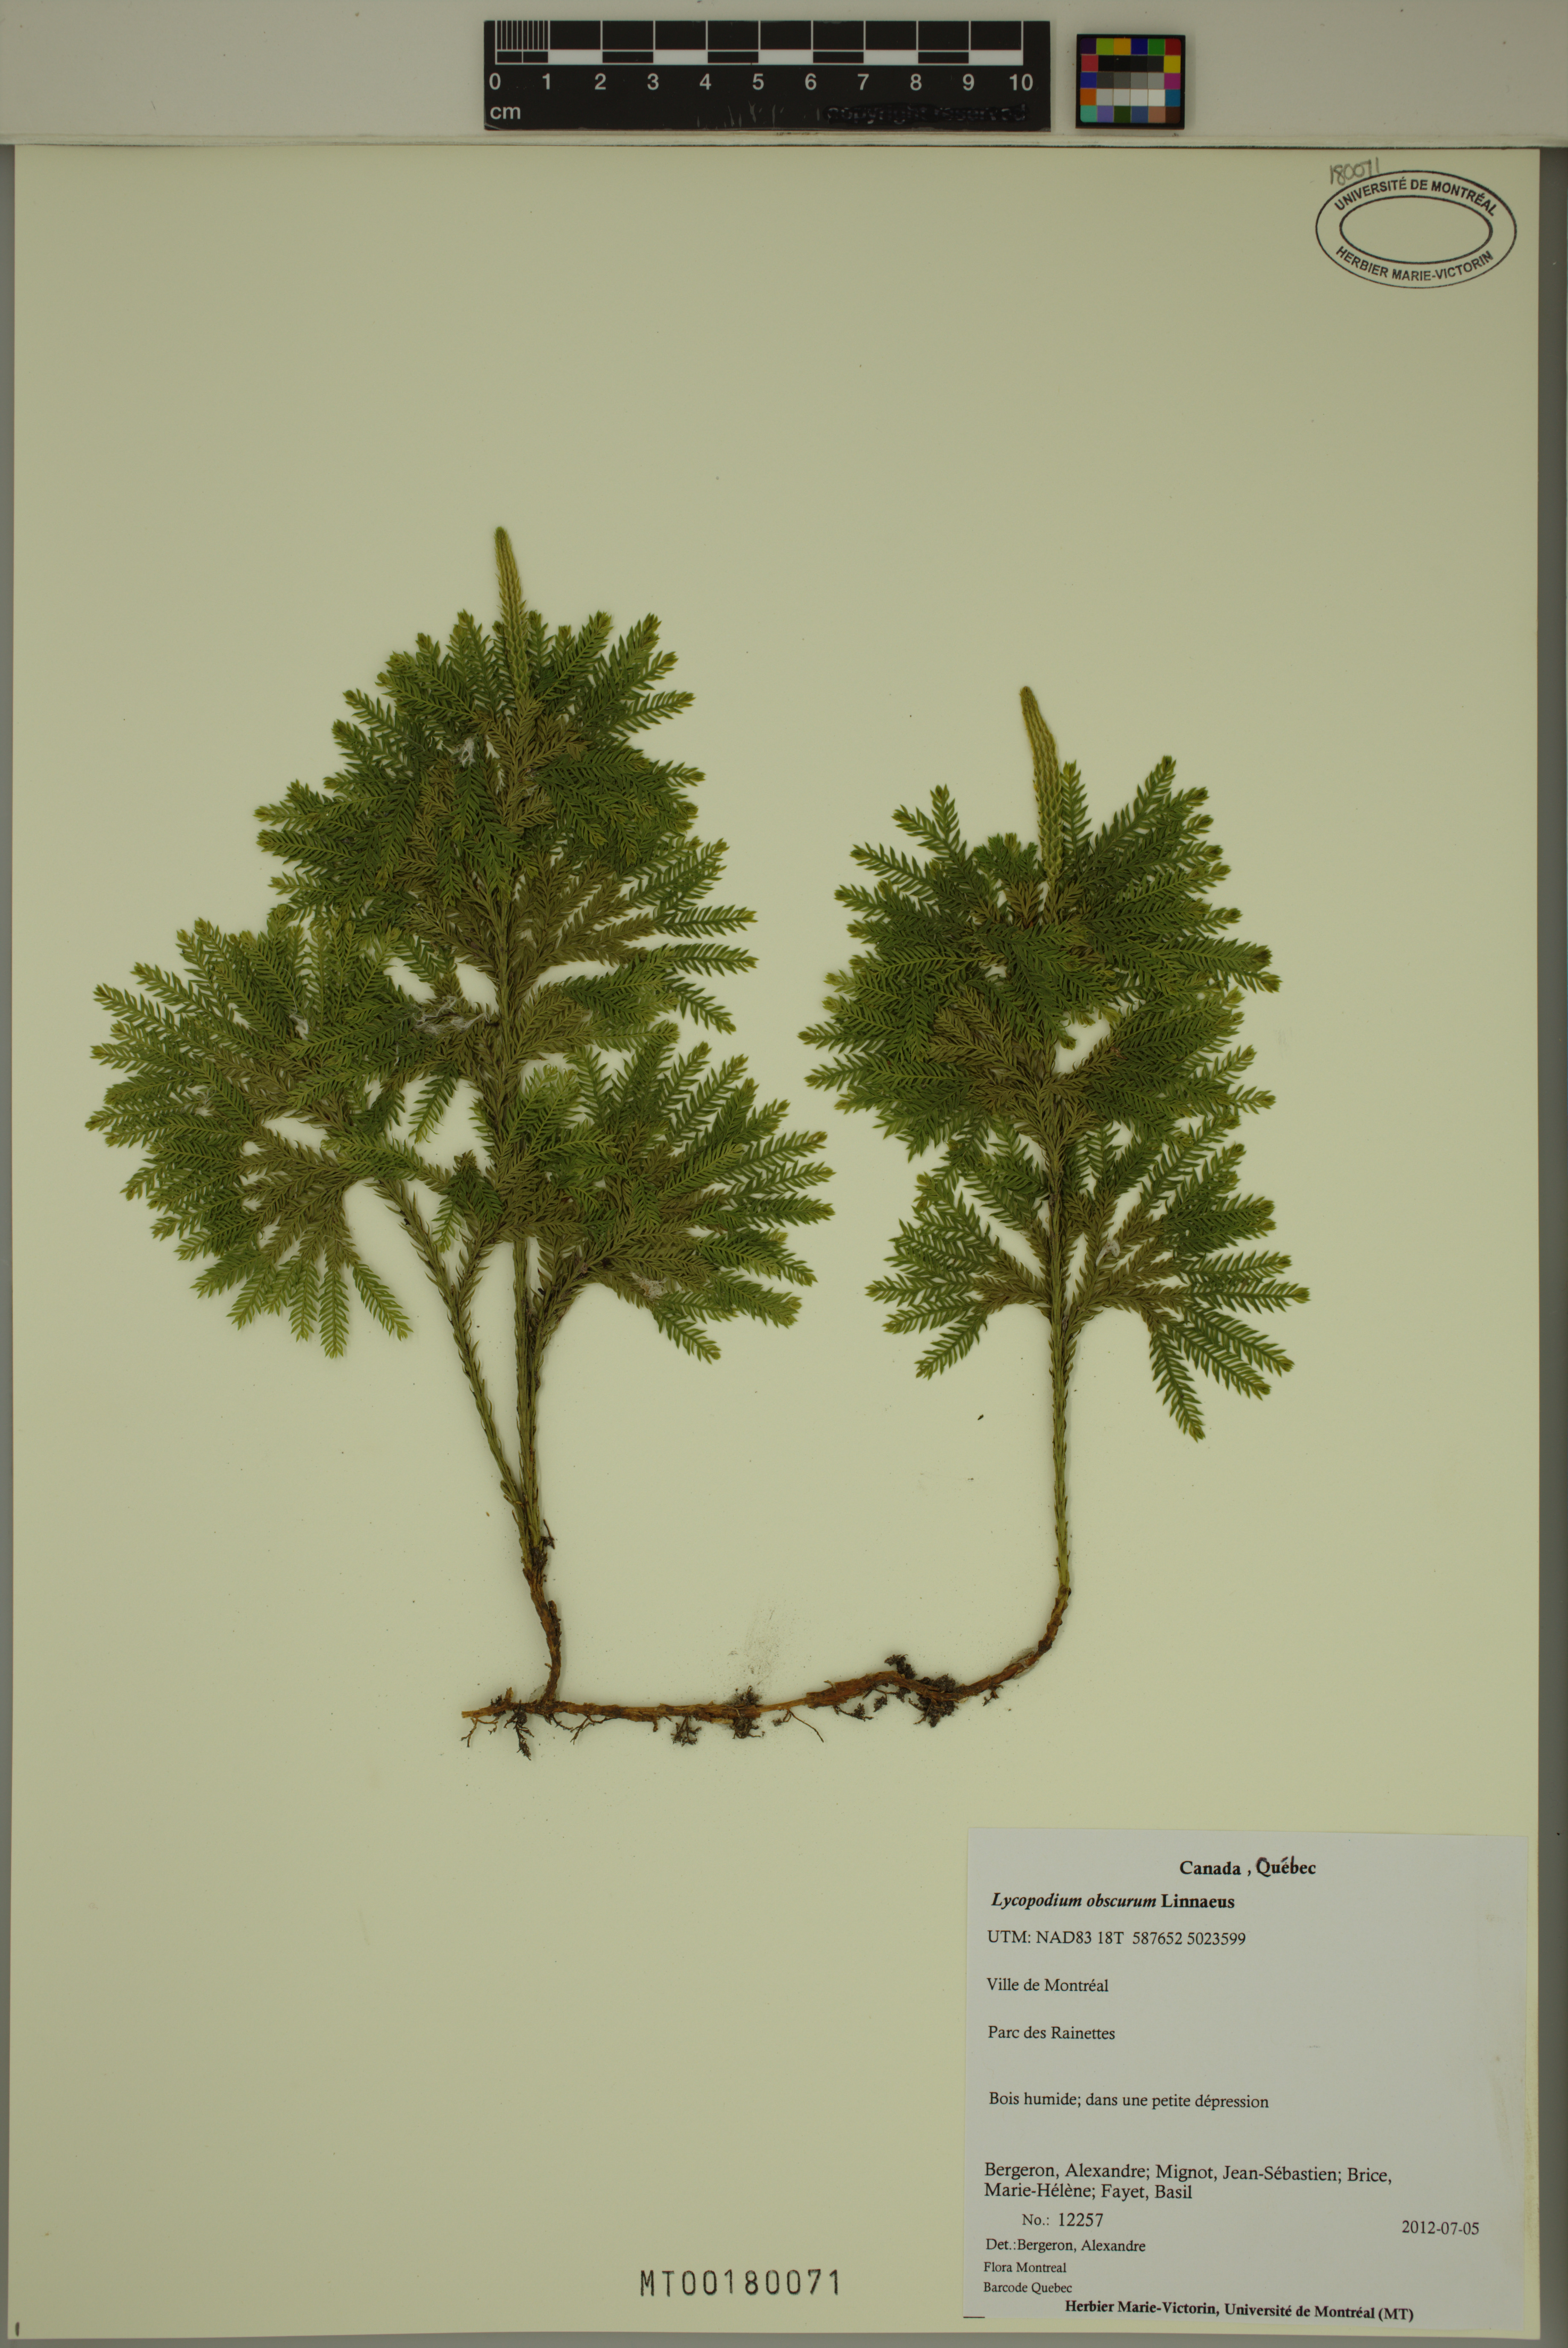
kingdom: Plantae
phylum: Tracheophyta
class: Lycopodiopsida
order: Lycopodiales
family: Lycopodiaceae
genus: Dendrolycopodium
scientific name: Dendrolycopodium obscurum
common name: Common ground-pine
